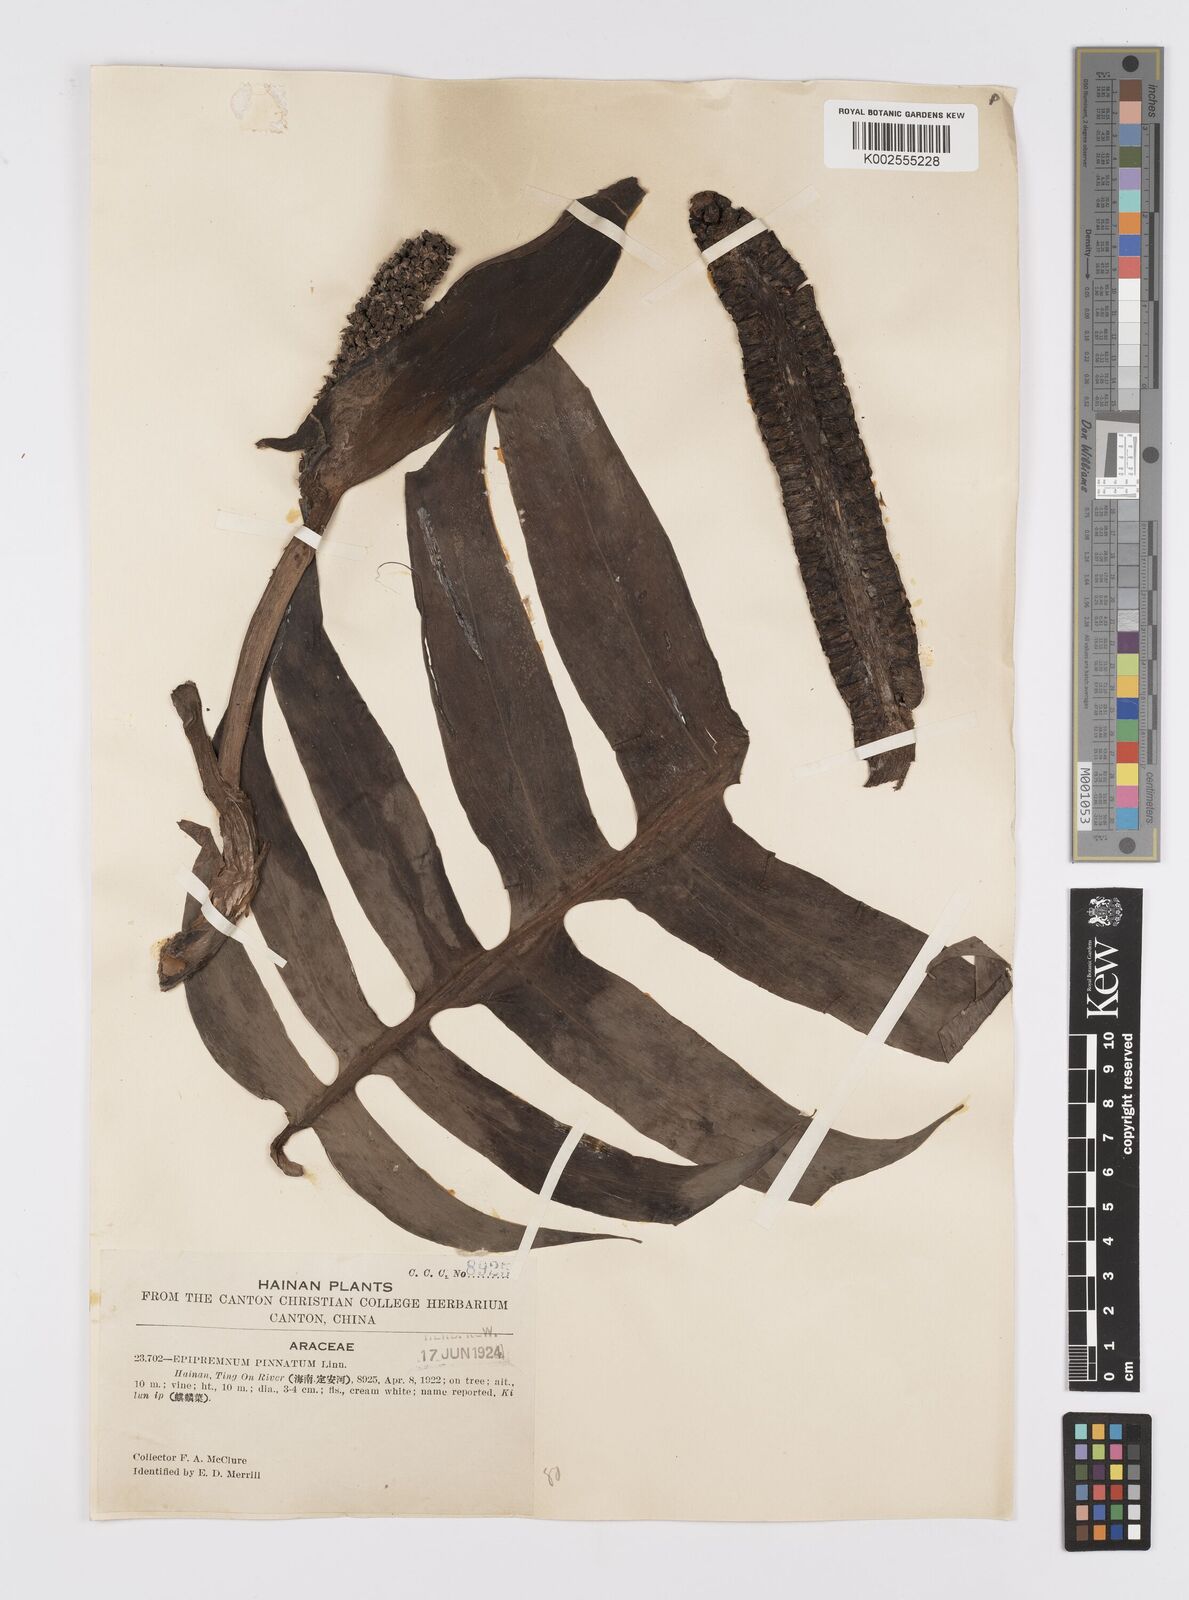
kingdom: Plantae
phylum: Tracheophyta
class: Liliopsida
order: Alismatales
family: Araceae
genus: Epipremnum
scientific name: Epipremnum pinnatum
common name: Centipede tongavine
